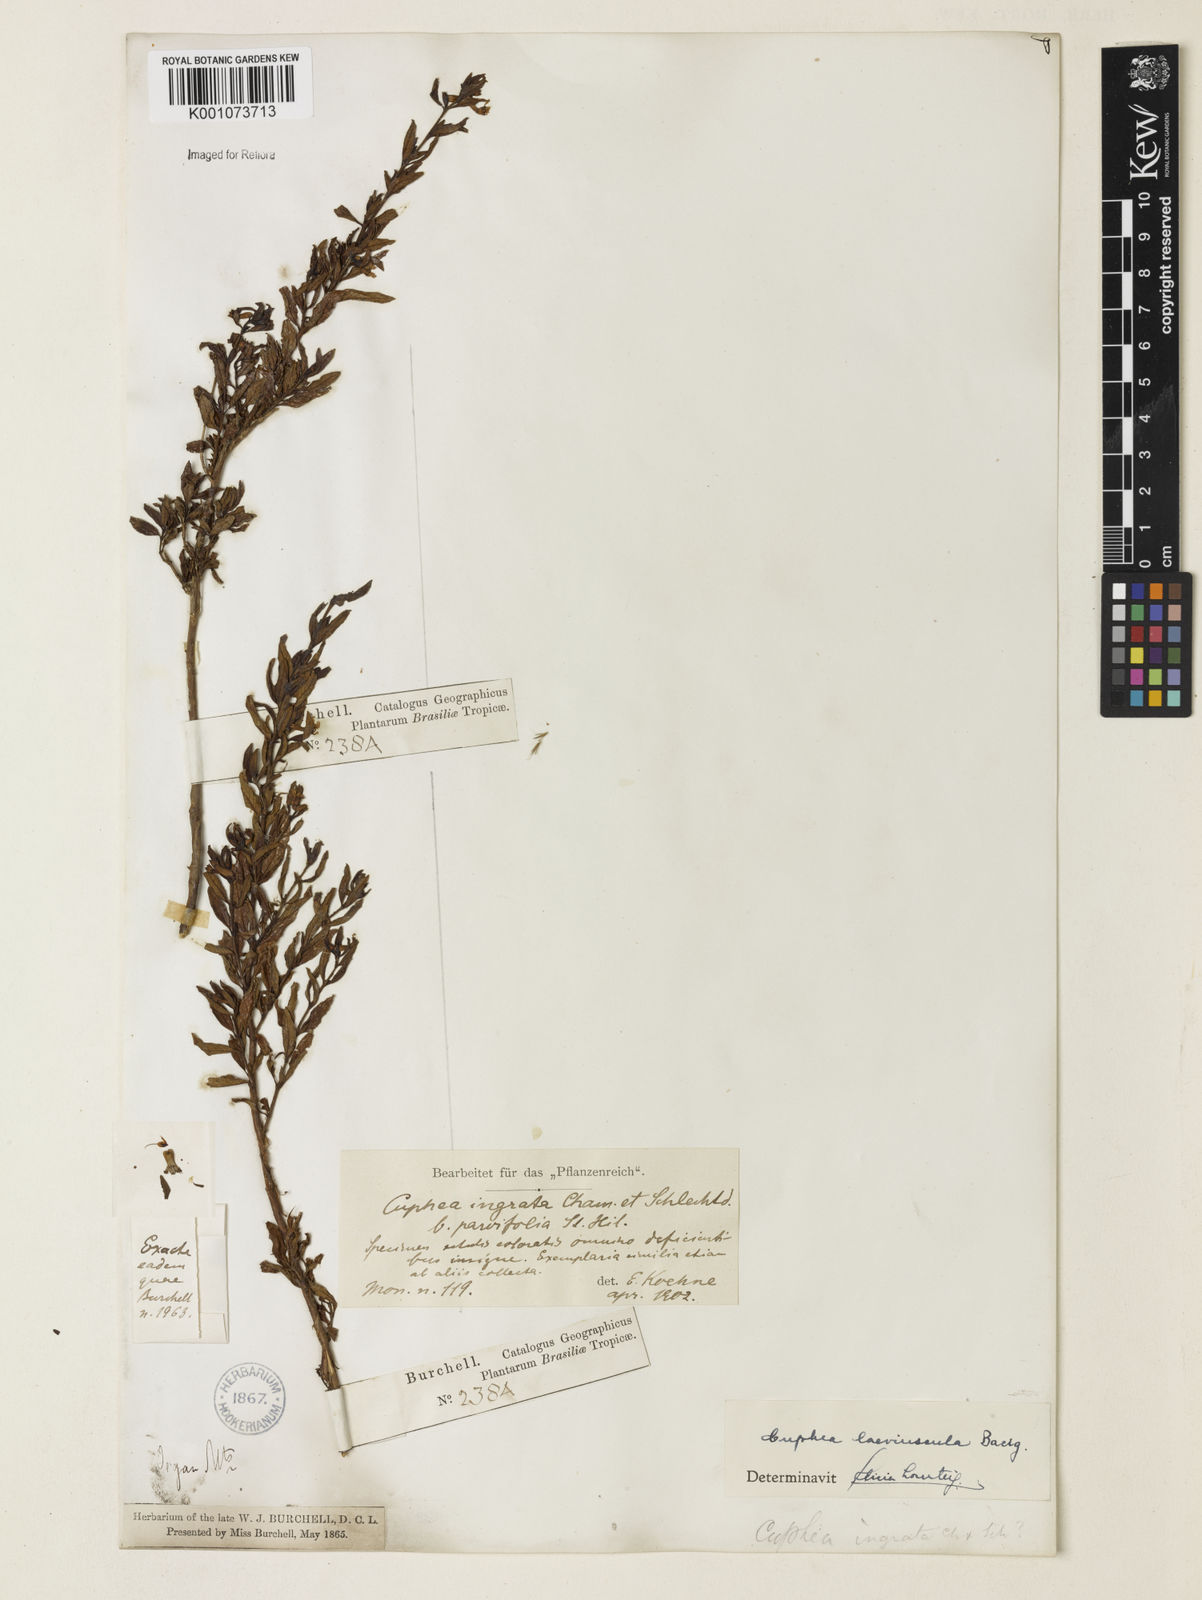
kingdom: Plantae
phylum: Tracheophyta
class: Magnoliopsida
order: Myrtales
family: Lythraceae
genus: Cuphea
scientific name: Cuphea
